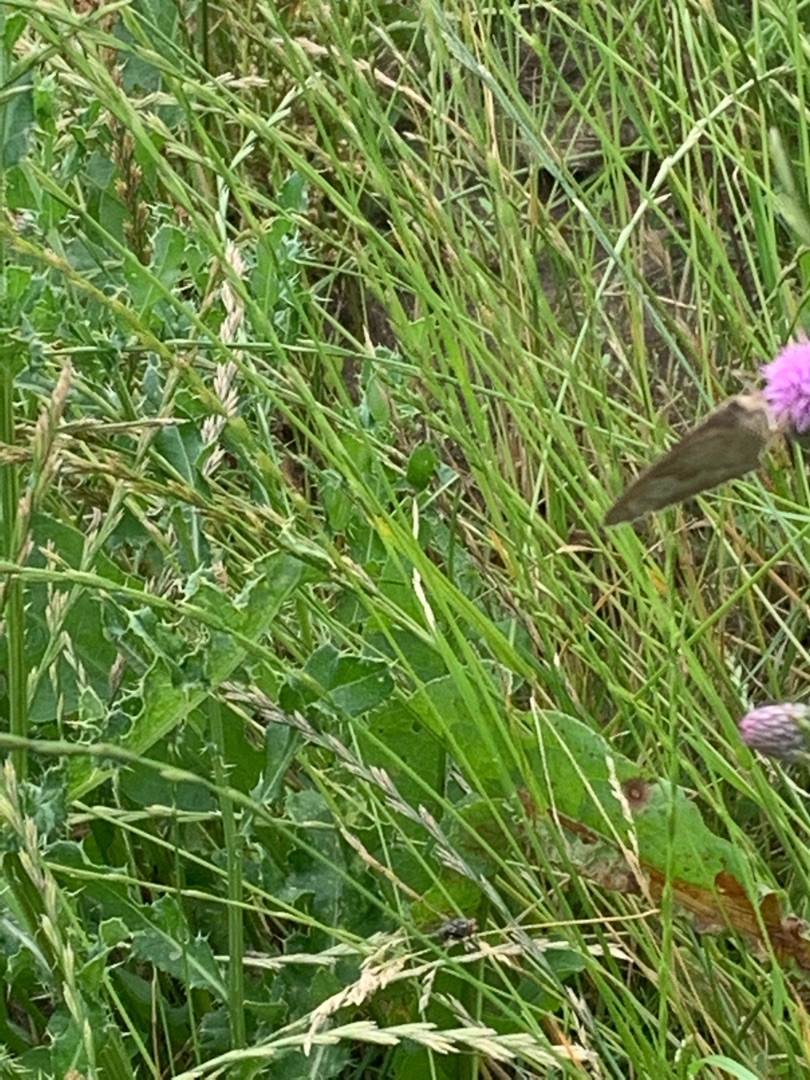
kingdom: Animalia
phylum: Arthropoda
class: Insecta
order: Lepidoptera
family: Nymphalidae
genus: Maniola
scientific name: Maniola jurtina
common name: Græsrandøje
